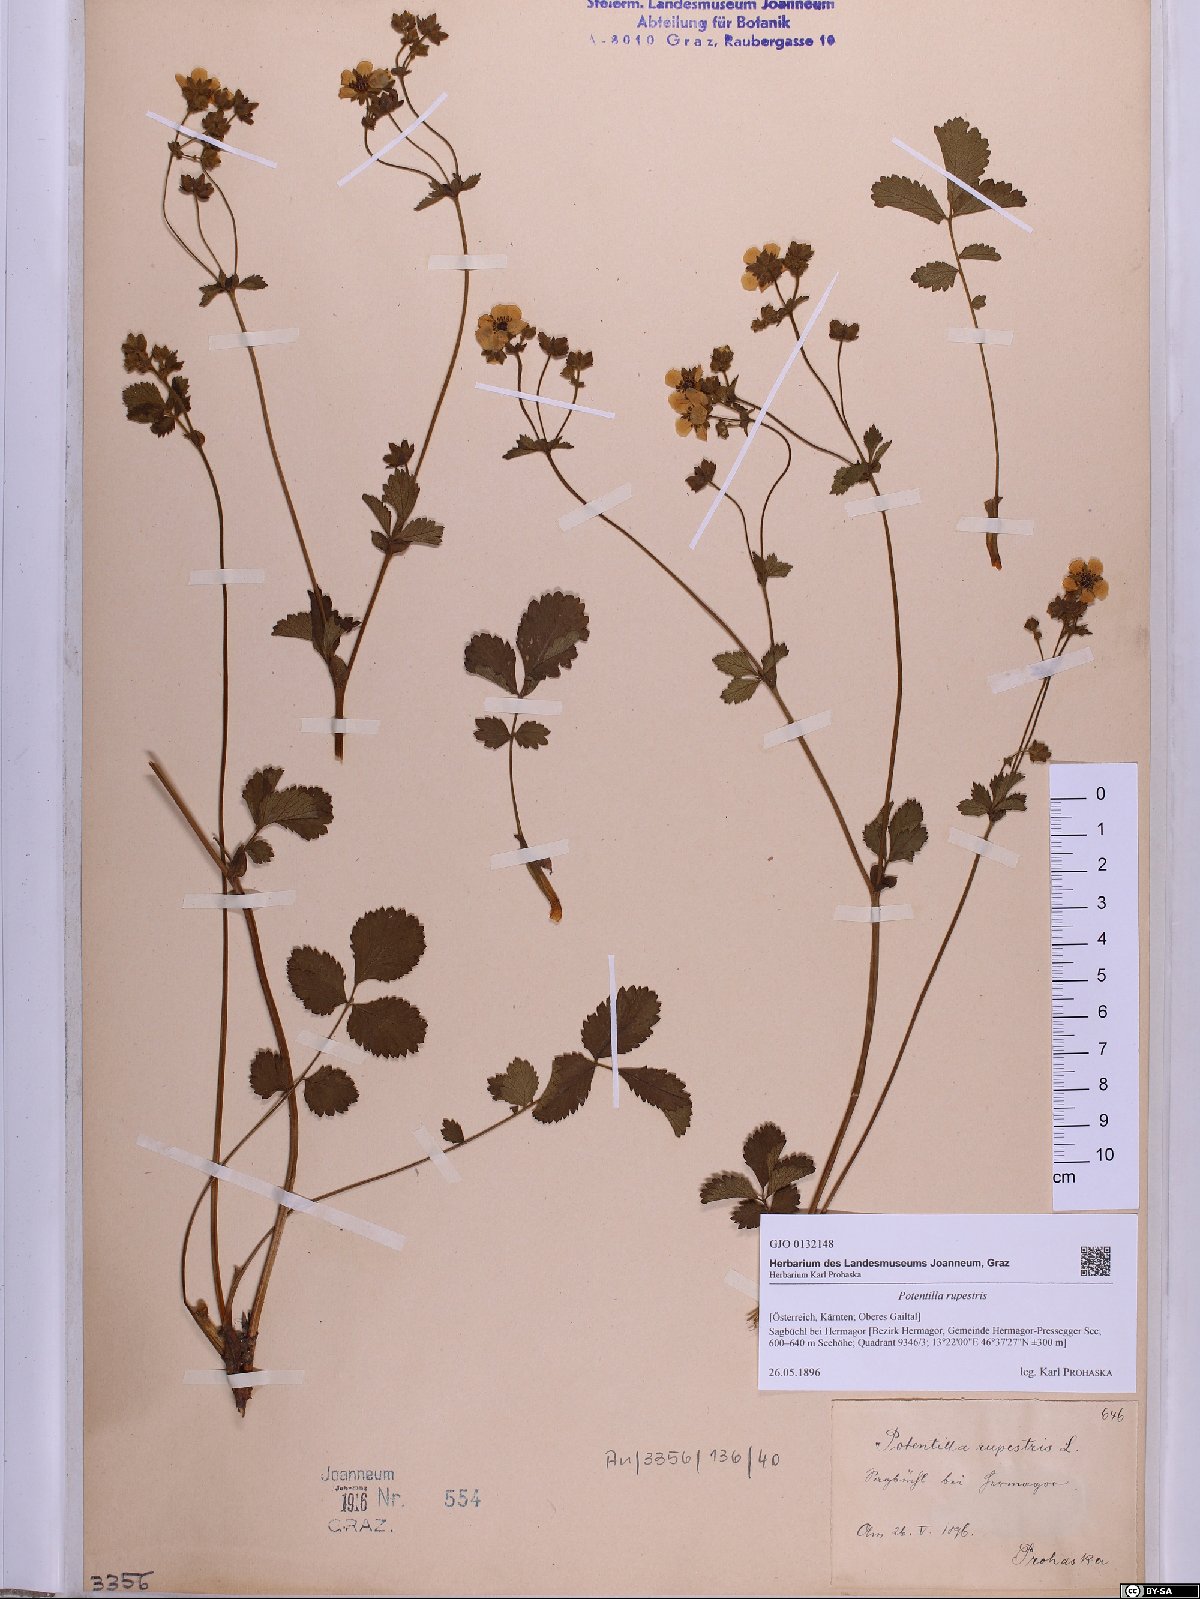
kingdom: Plantae
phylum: Tracheophyta
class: Magnoliopsida
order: Rosales
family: Rosaceae
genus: Drymocallis
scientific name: Drymocallis rupestris
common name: Rock cinquefoil
